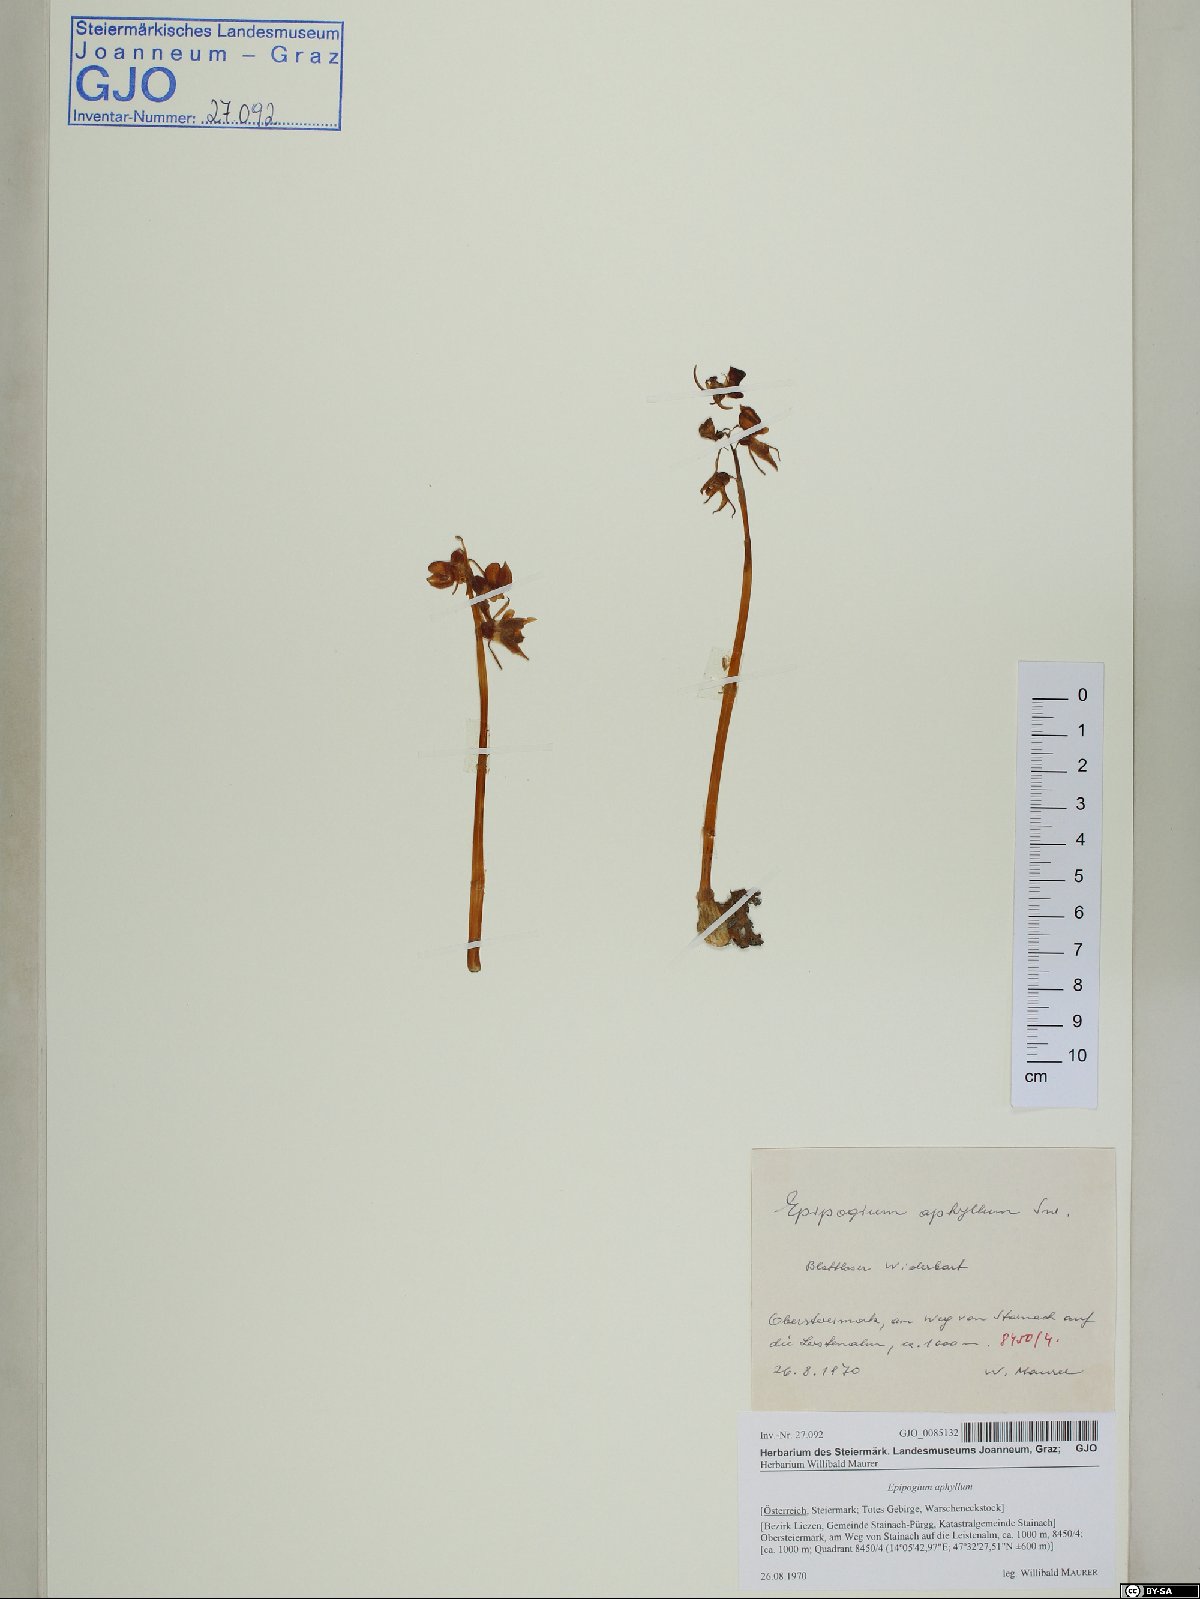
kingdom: Plantae
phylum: Tracheophyta
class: Liliopsida
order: Asparagales
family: Orchidaceae
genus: Epipogium
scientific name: Epipogium aphyllum
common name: Ghost orchid
